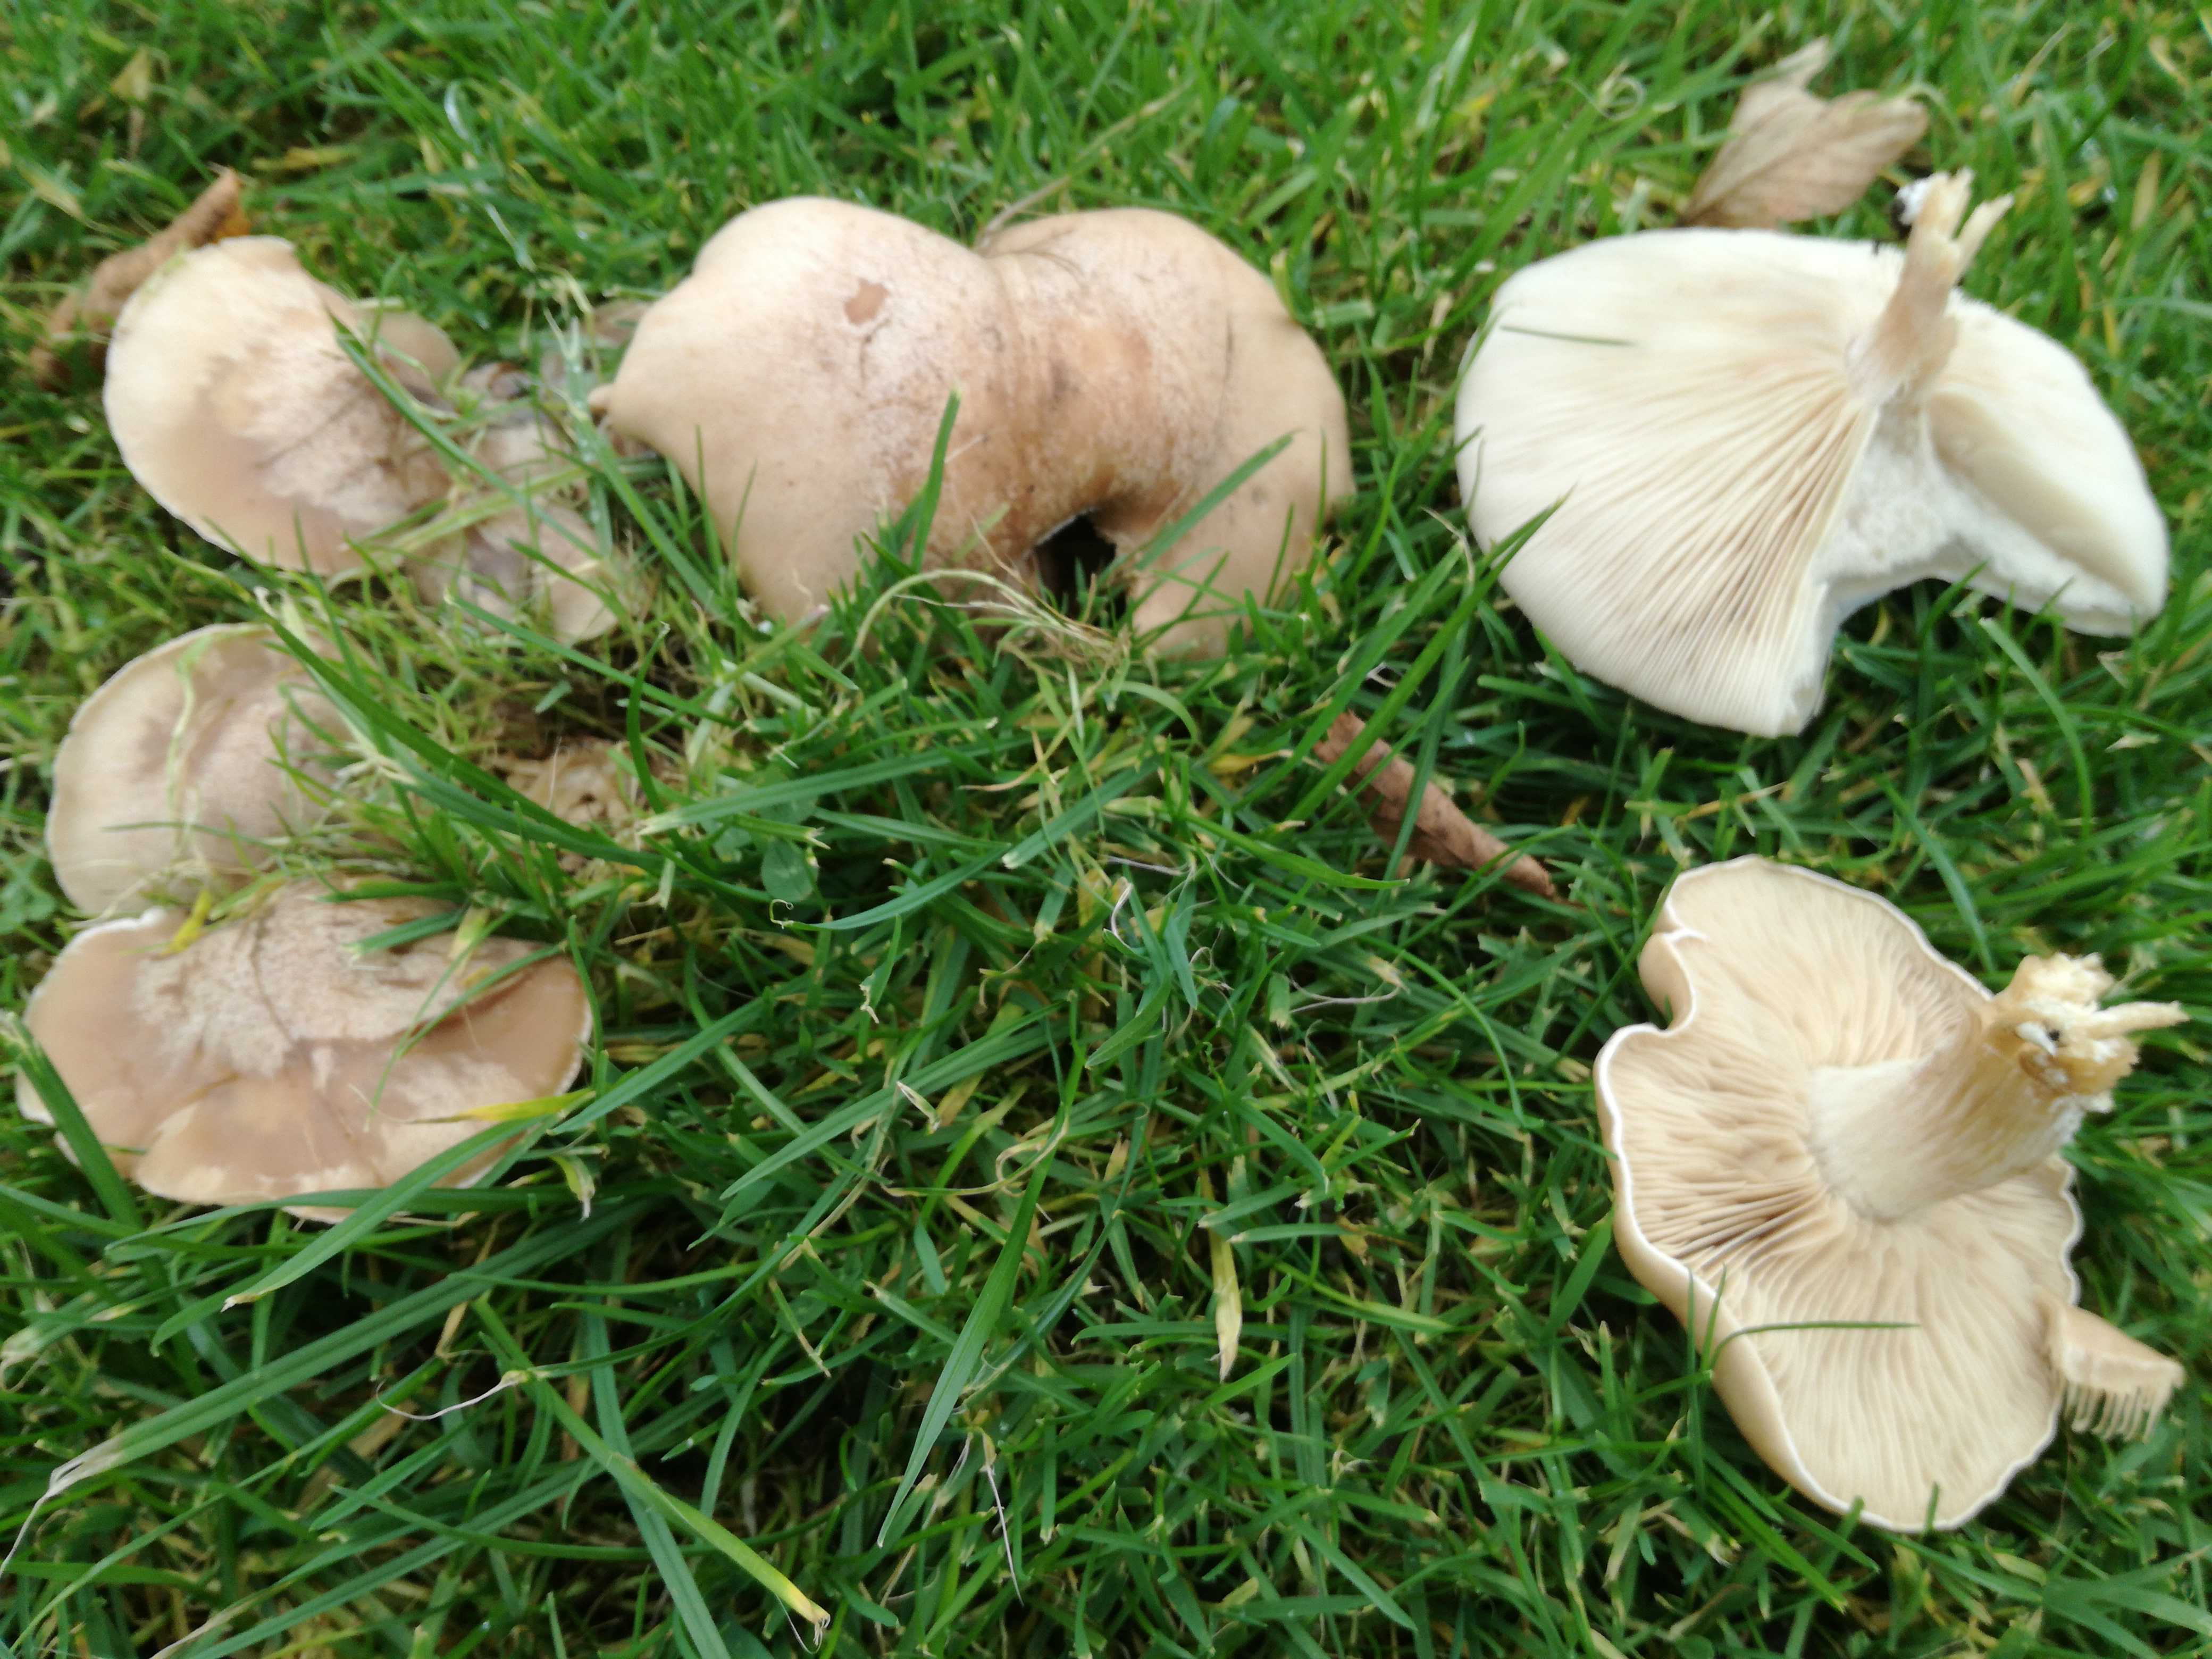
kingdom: Fungi
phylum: Basidiomycota
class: Agaricomycetes
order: Agaricales
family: Tricholomataceae
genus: Lepista
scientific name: Lepista
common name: hekseringshat
